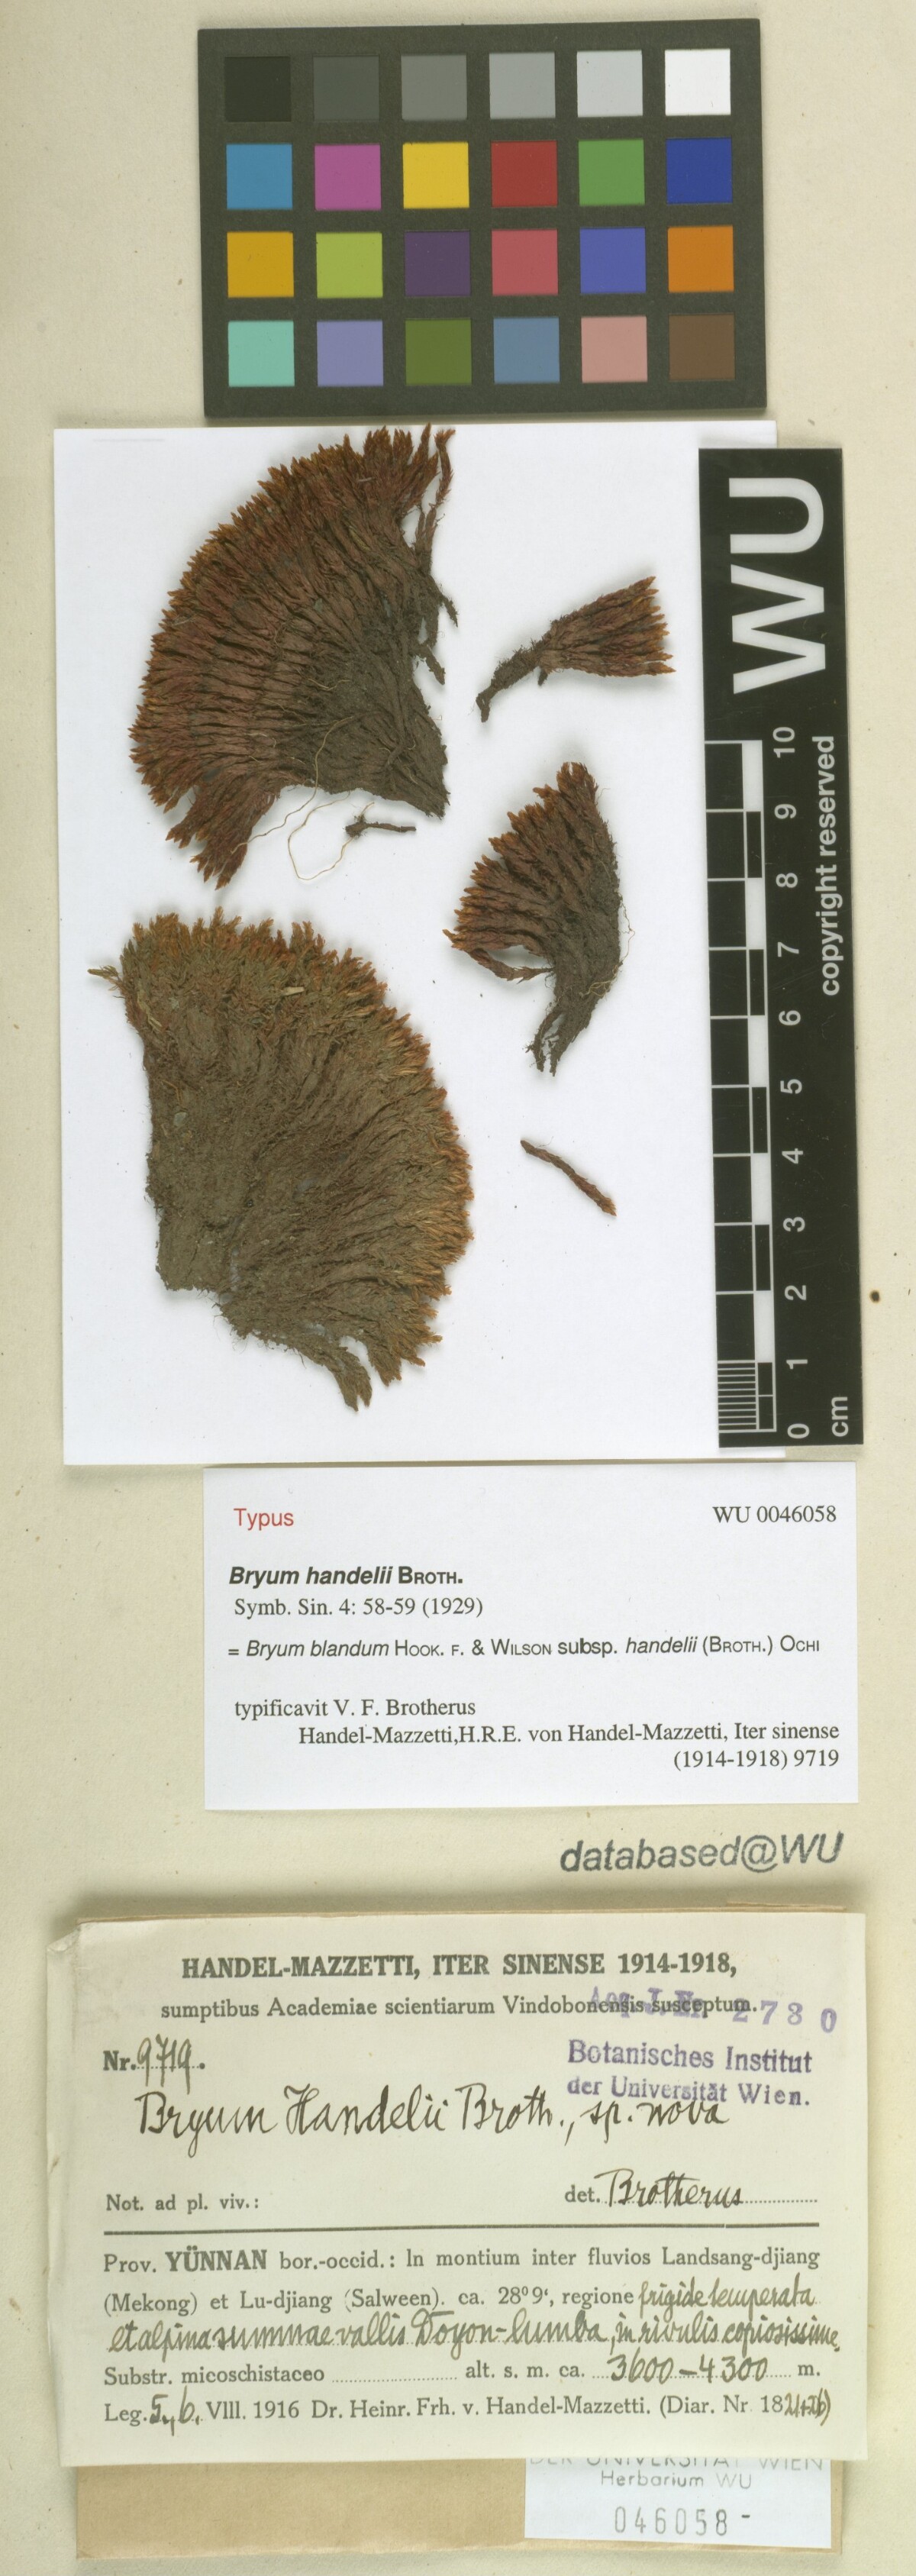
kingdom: Plantae
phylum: Bryophyta
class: Bryopsida
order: Bryales
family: Bryaceae
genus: Ochiobryum
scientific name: Ochiobryum handelii
